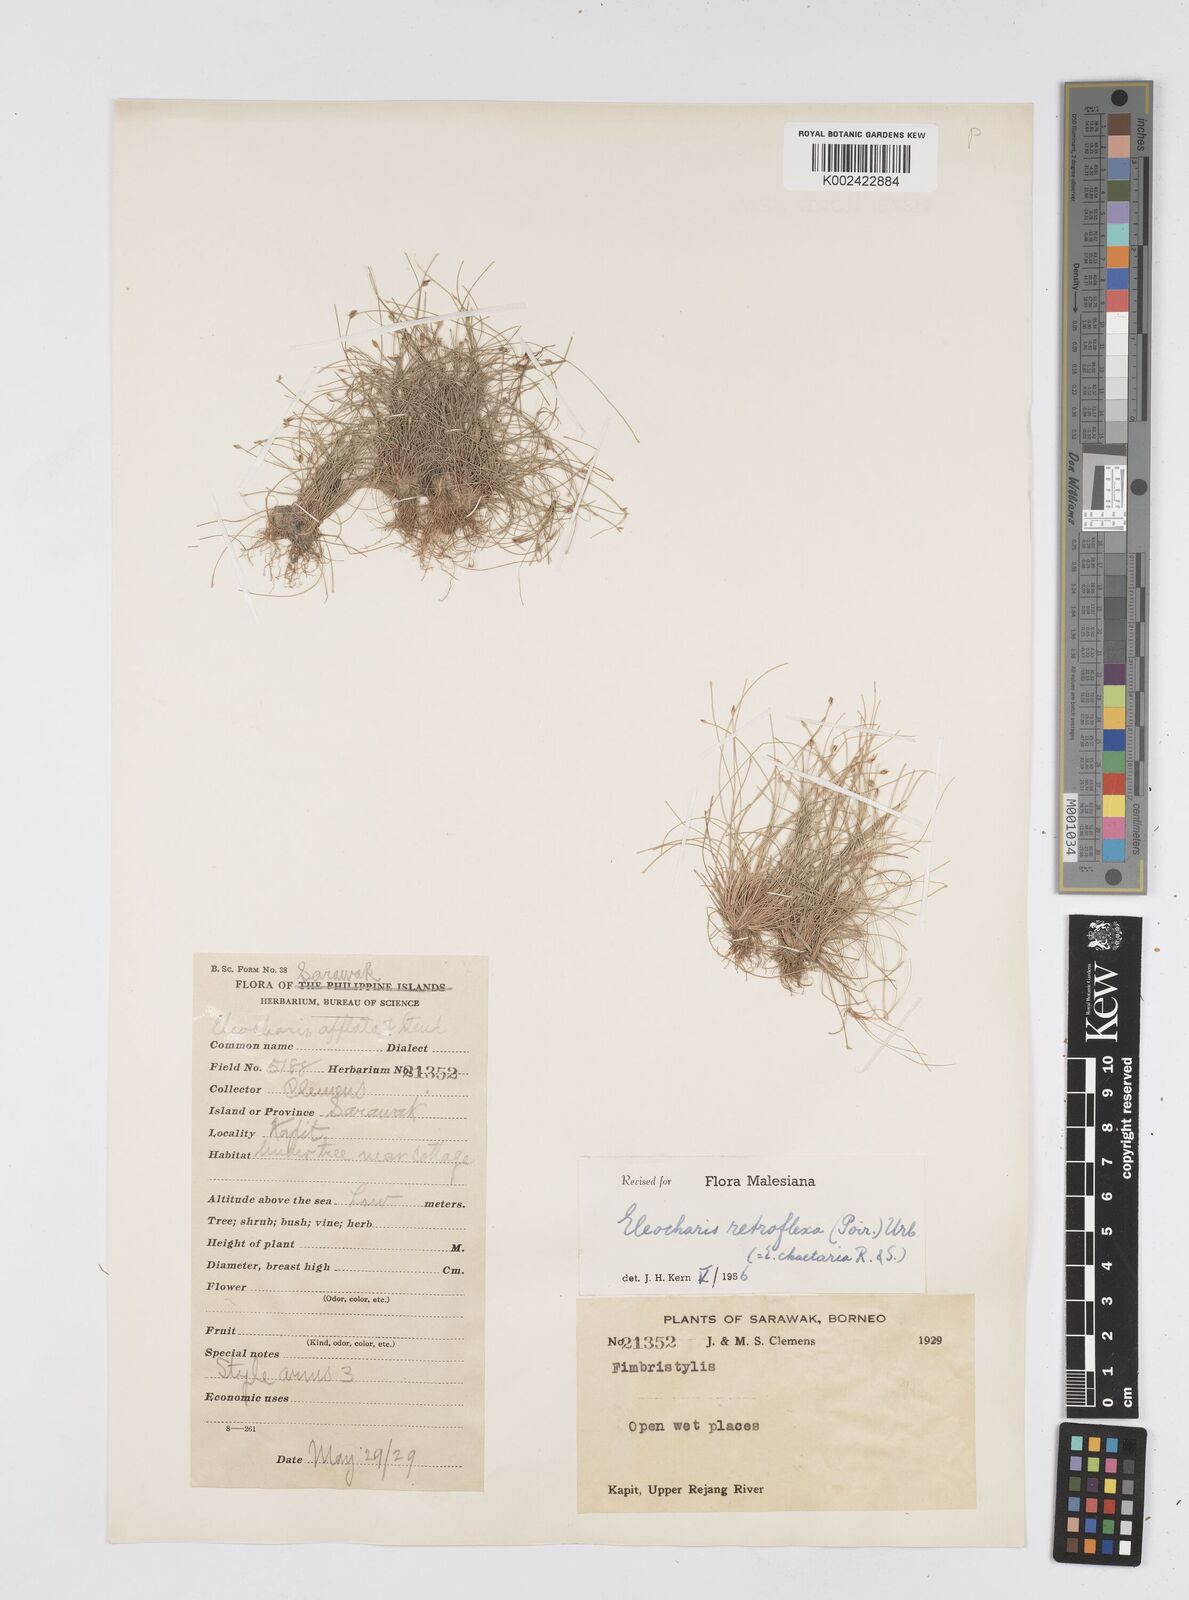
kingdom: Plantae
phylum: Tracheophyta
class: Liliopsida
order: Poales
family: Cyperaceae
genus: Eleocharis
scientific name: Eleocharis retroflexa
